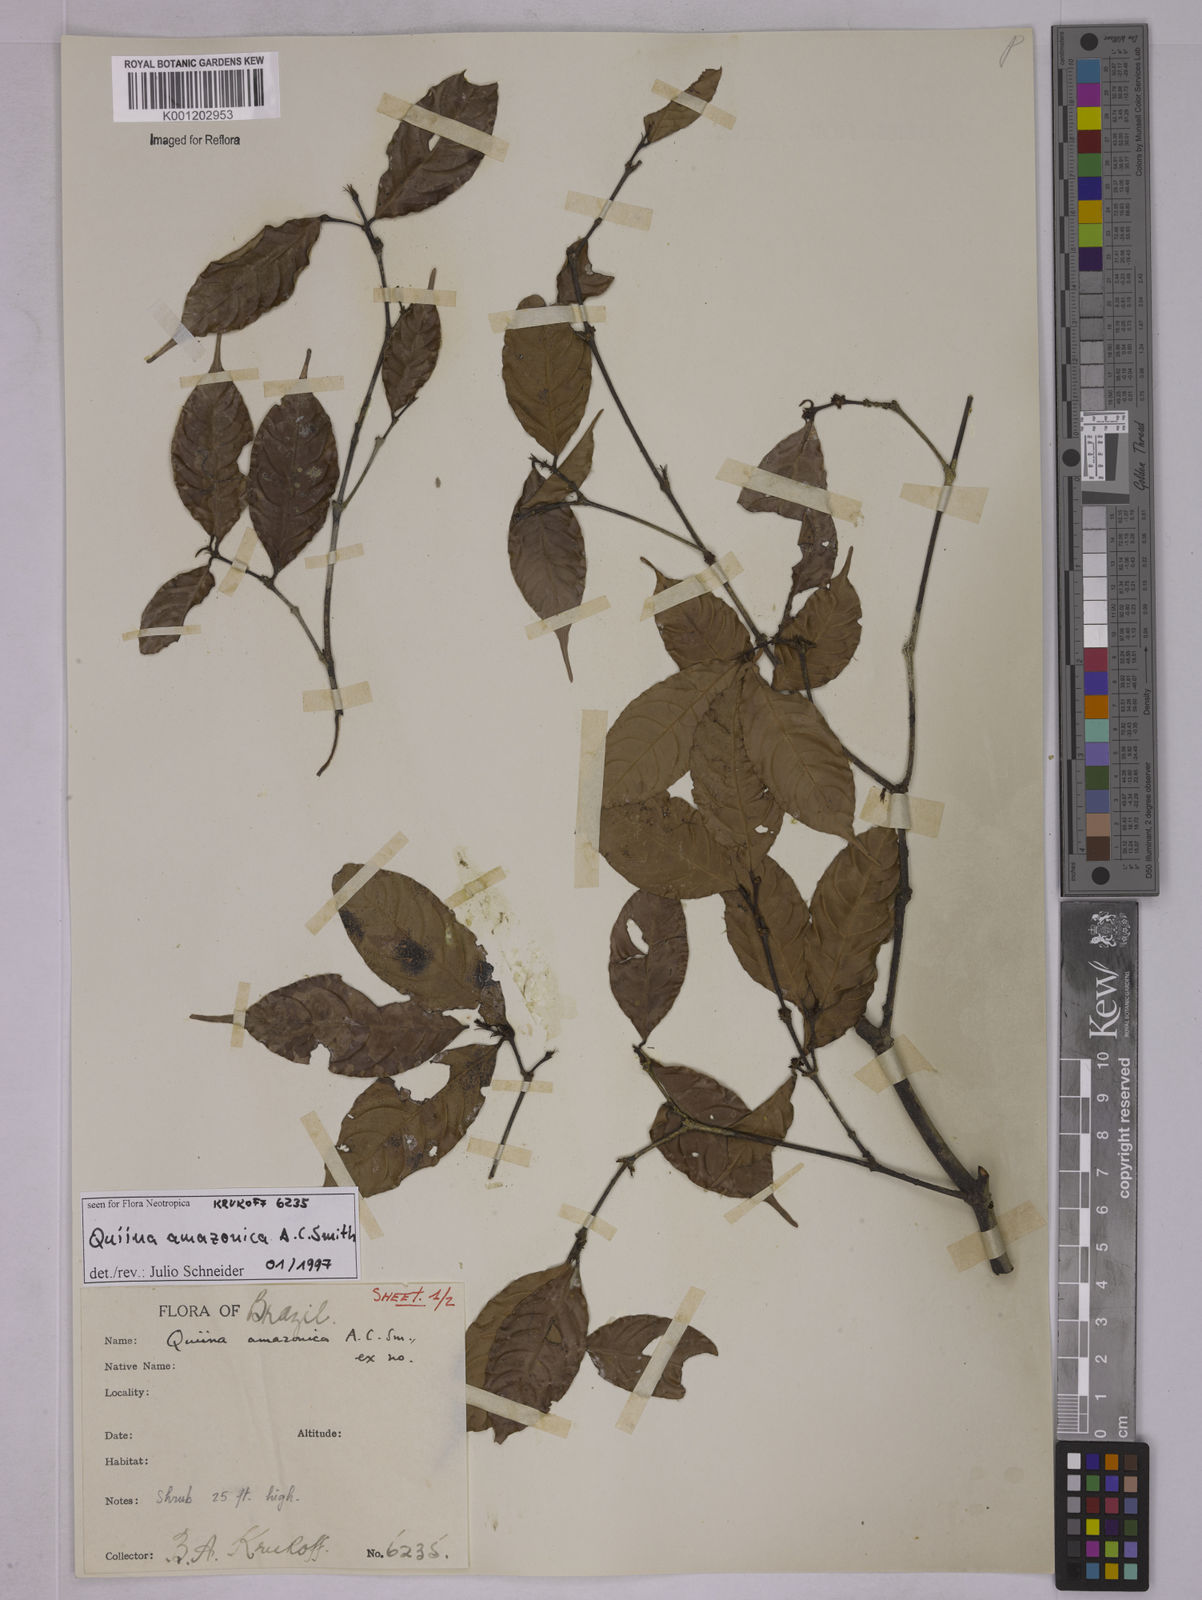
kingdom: Plantae
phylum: Tracheophyta
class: Magnoliopsida
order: Malpighiales
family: Quiinaceae
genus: Quiina
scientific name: Quiina amazonica
